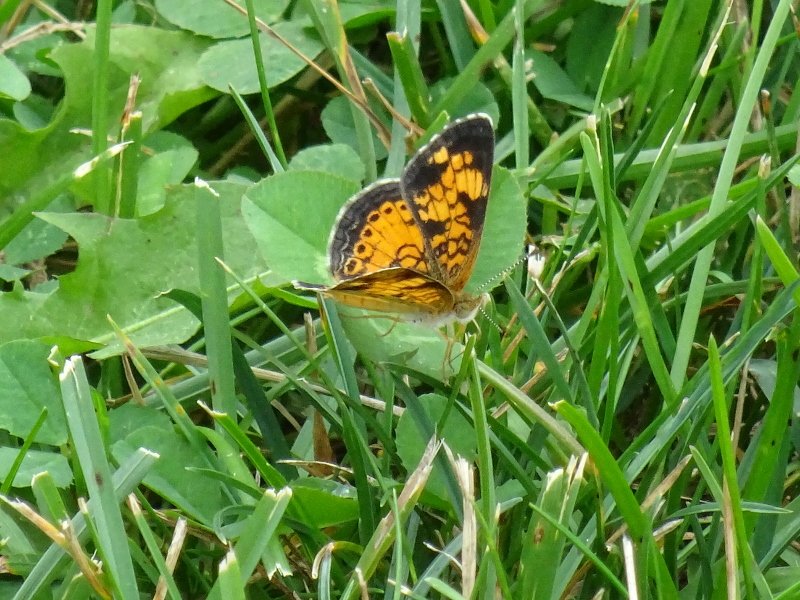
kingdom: Animalia
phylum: Arthropoda
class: Insecta
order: Lepidoptera
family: Nymphalidae
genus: Phyciodes
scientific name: Phyciodes tharos
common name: Pearl Crescent
